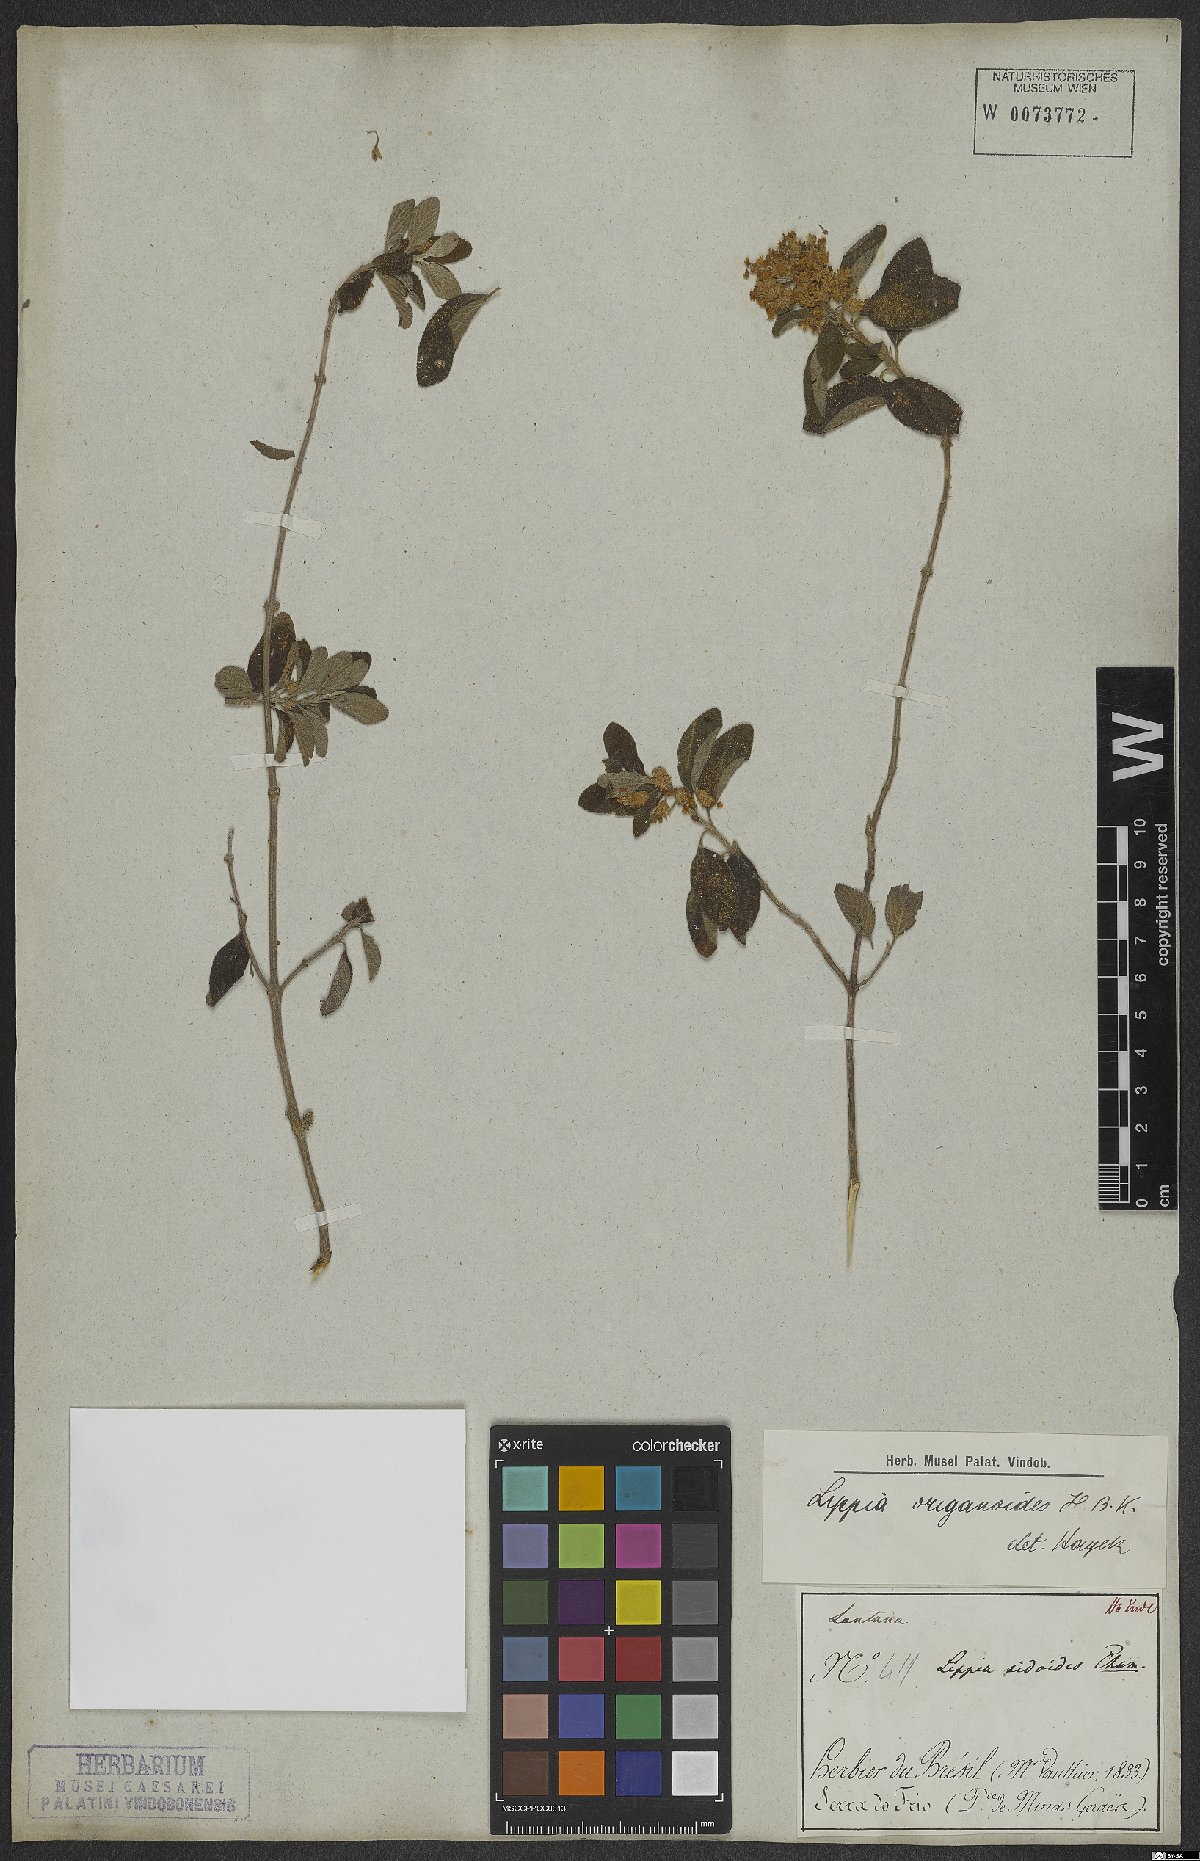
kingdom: Plantae
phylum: Tracheophyta
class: Magnoliopsida
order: Lamiales
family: Verbenaceae
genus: Lippia
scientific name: Lippia origanoides
